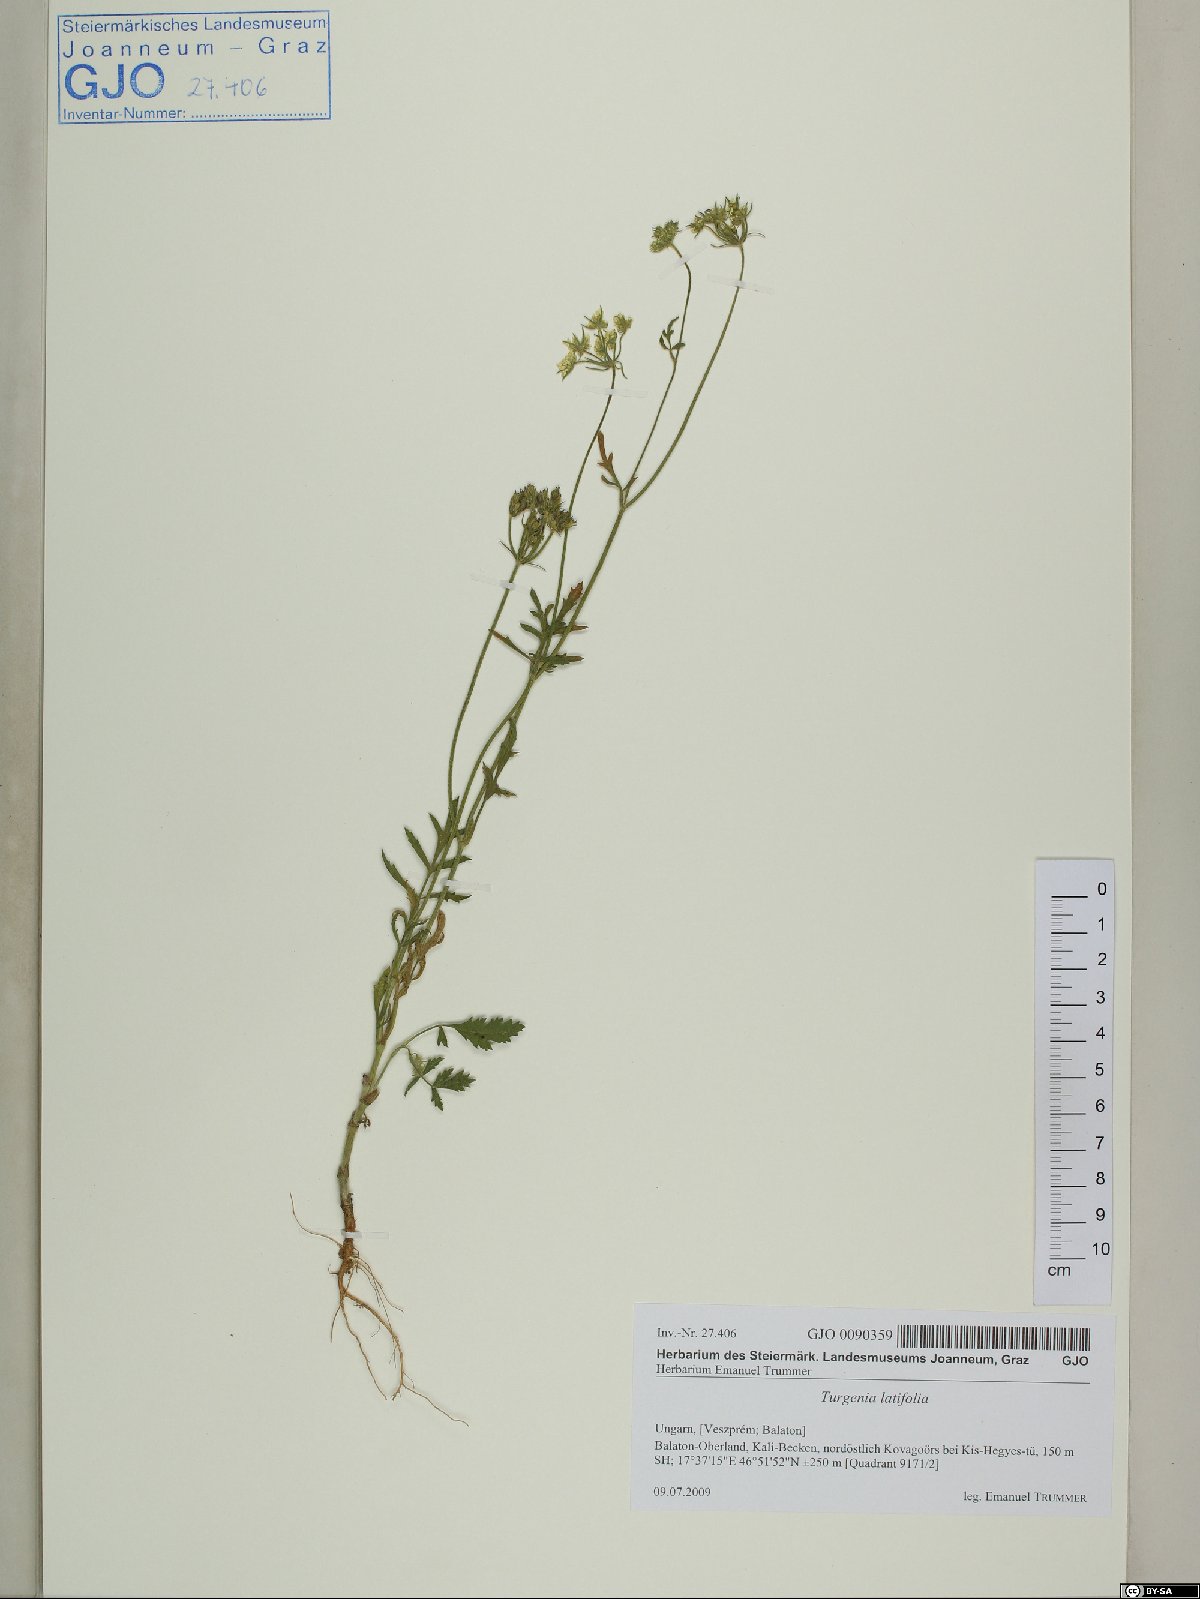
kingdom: Plantae
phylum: Tracheophyta
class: Magnoliopsida
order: Apiales
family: Apiaceae
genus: Turgenia
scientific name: Turgenia latifolia
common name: Greater bur-parsley
